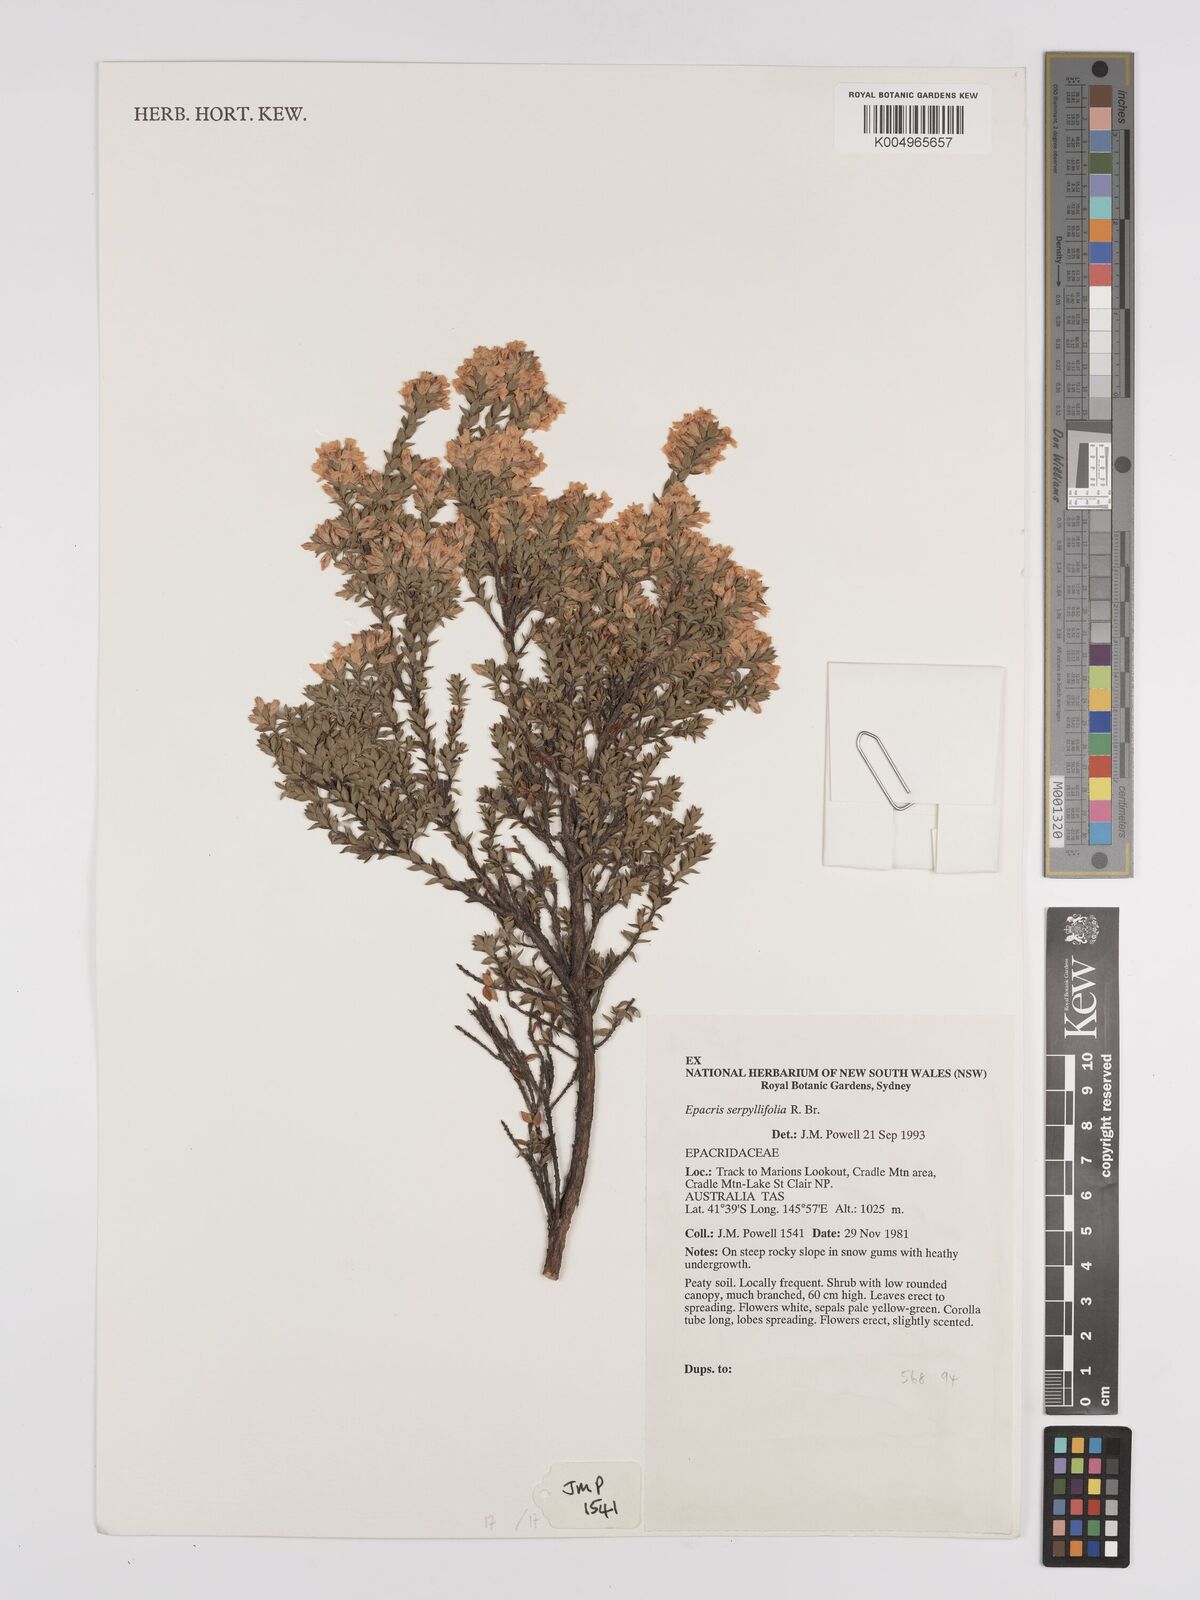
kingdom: Plantae
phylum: Tracheophyta
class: Magnoliopsida
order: Ericales
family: Ericaceae
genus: Epacris
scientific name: Epacris serpyllifolia
